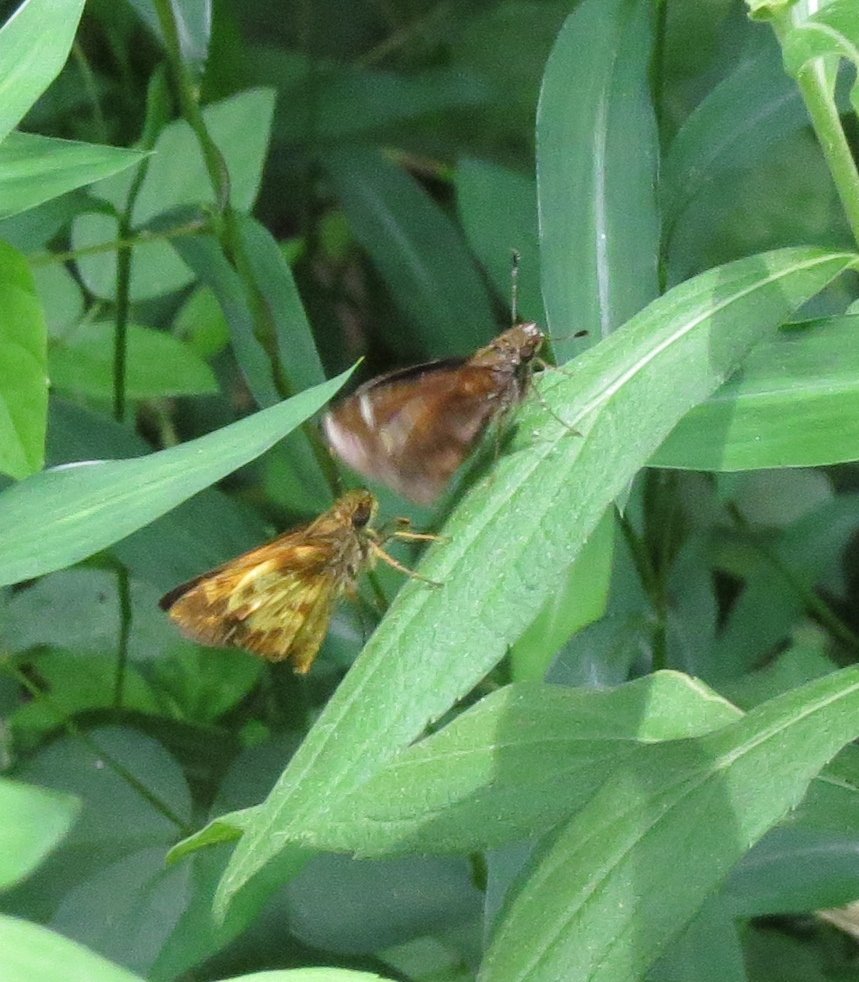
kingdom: Animalia
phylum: Arthropoda
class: Insecta
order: Lepidoptera
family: Hesperiidae
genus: Lon
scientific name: Lon zabulon
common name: Zabulon Skipper
